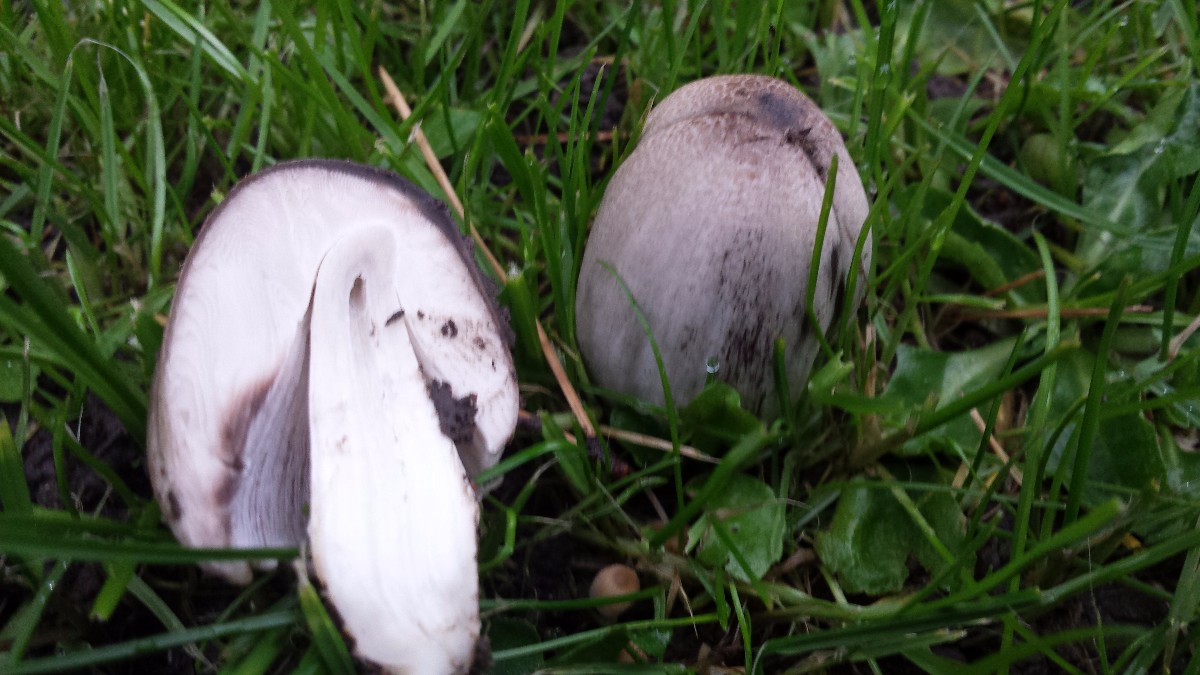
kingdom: Fungi
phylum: Basidiomycota
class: Agaricomycetes
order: Agaricales
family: Psathyrellaceae
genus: Coprinopsis
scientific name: Coprinopsis atramentaria
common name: almindelig blækhat
